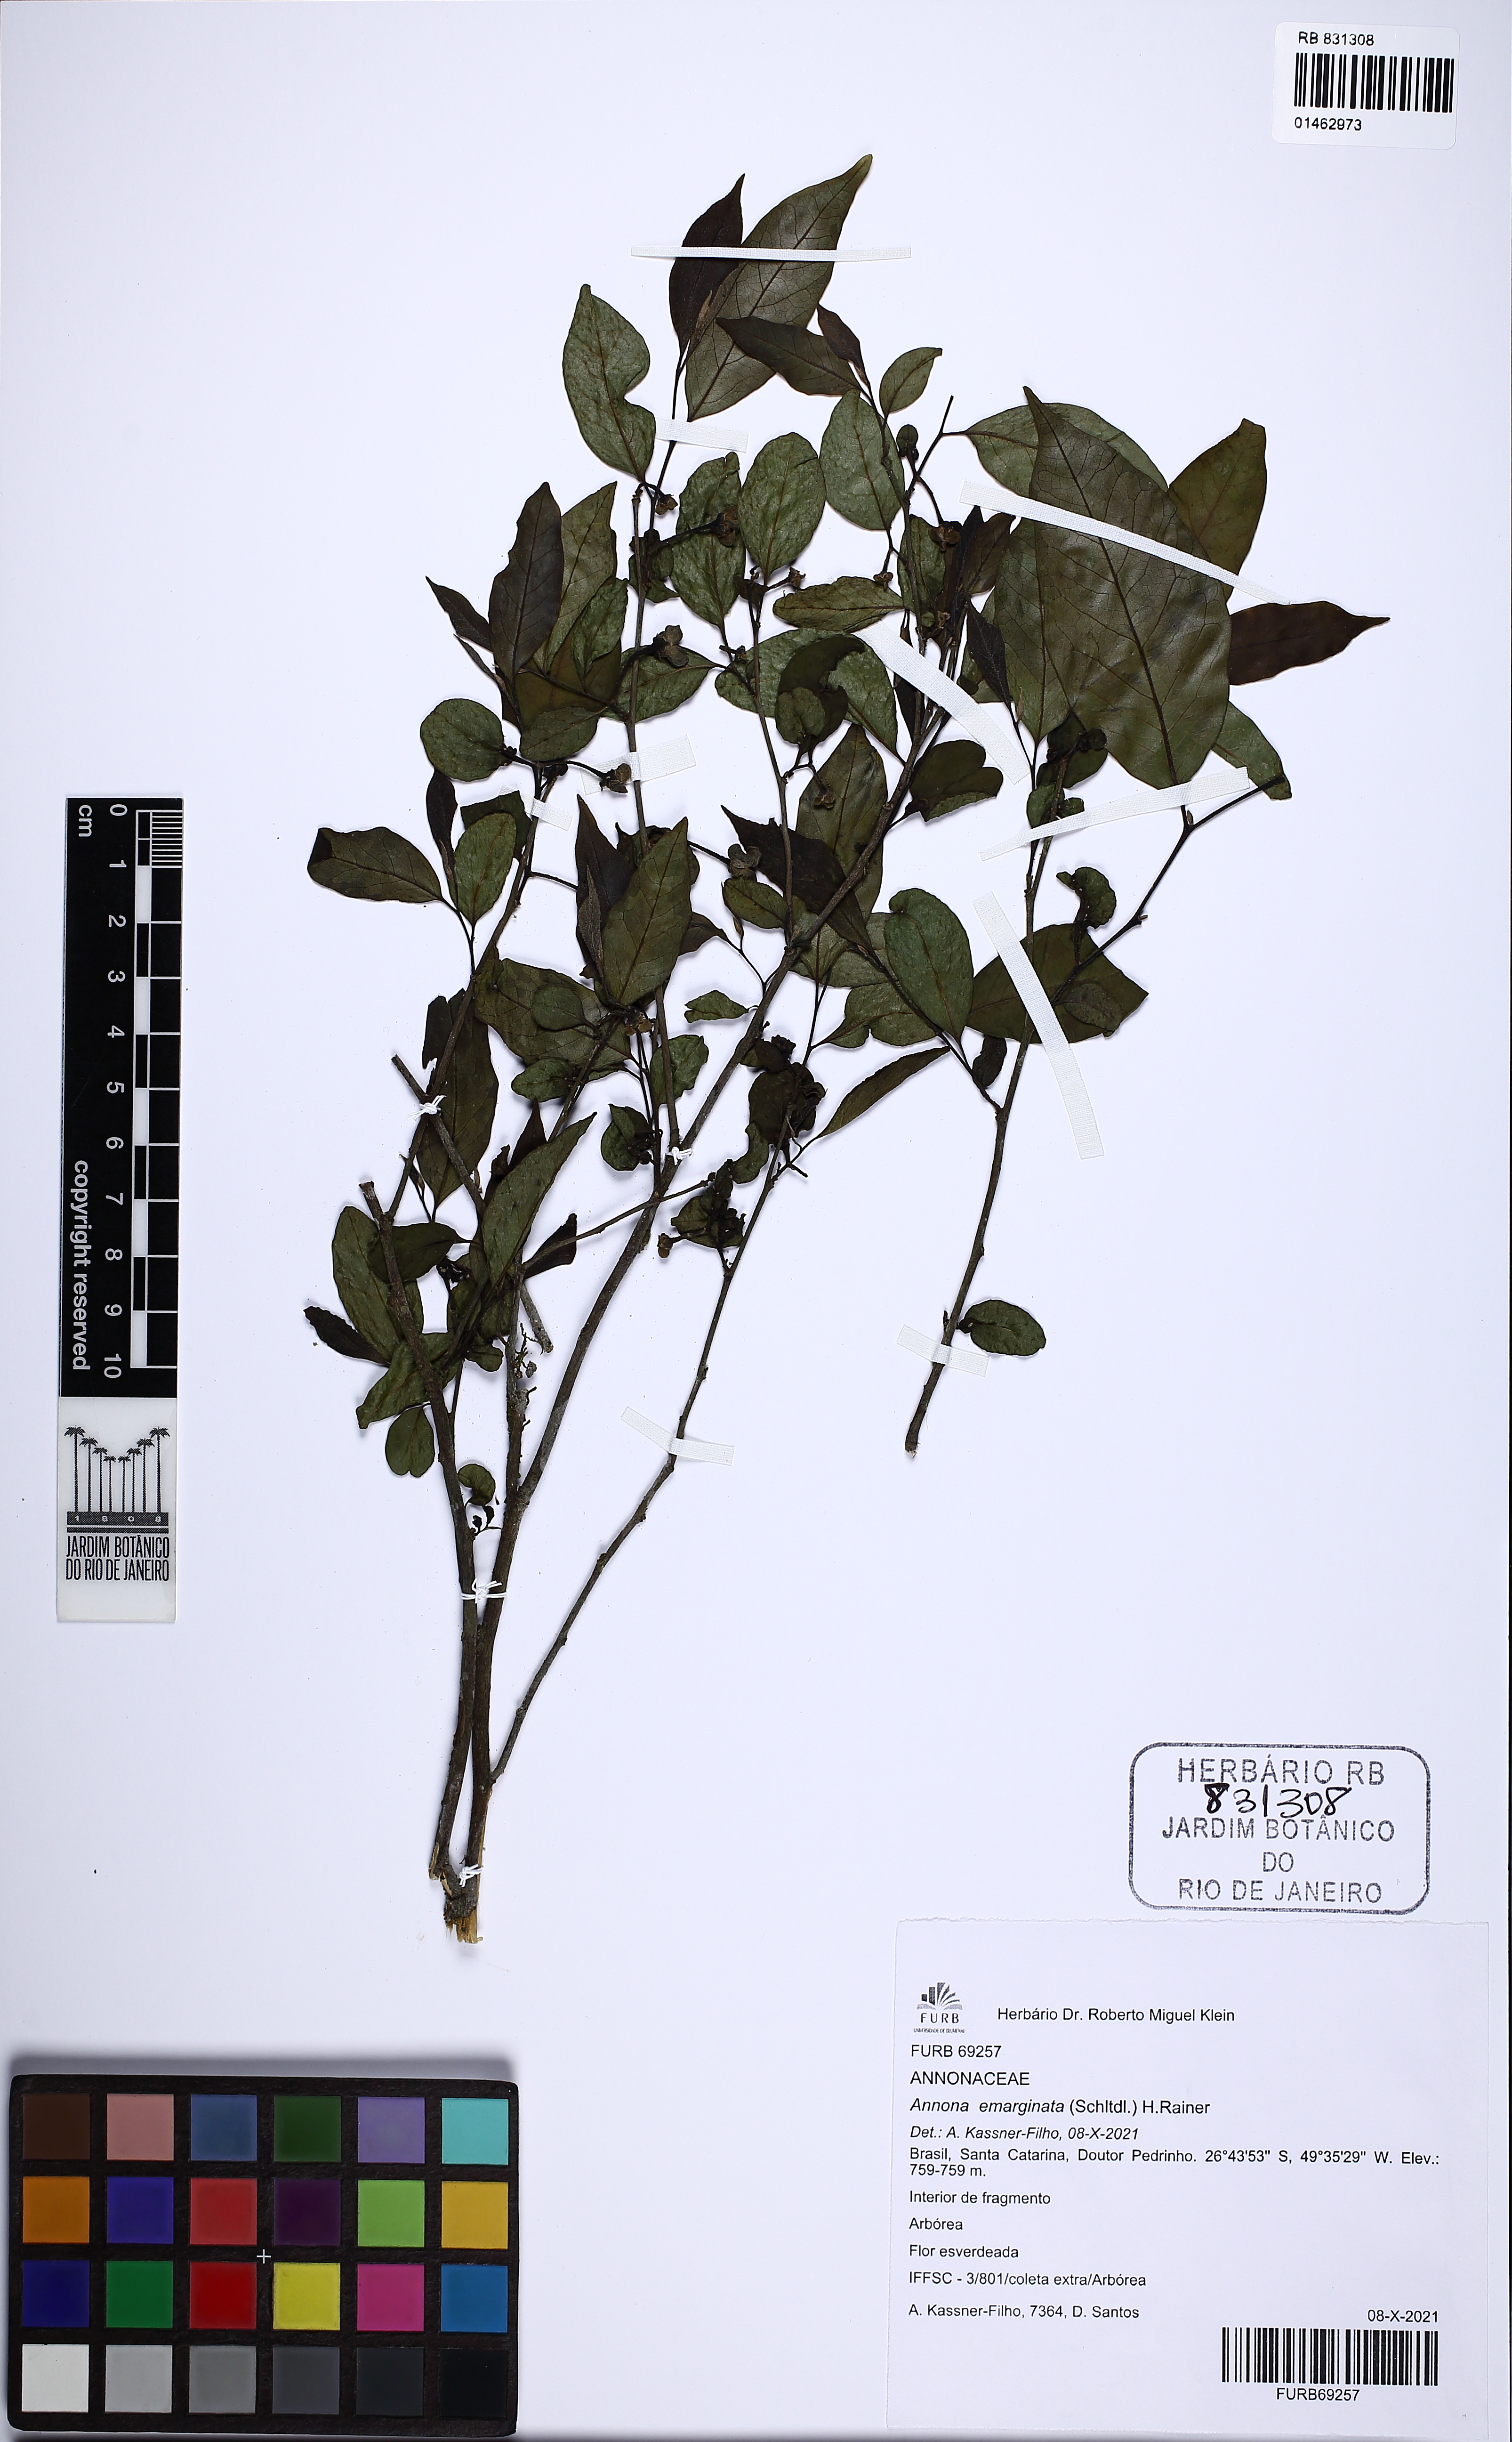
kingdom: Plantae
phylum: Tracheophyta
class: Magnoliopsida
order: Magnoliales
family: Annonaceae
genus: Annona
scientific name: Annona emarginata
